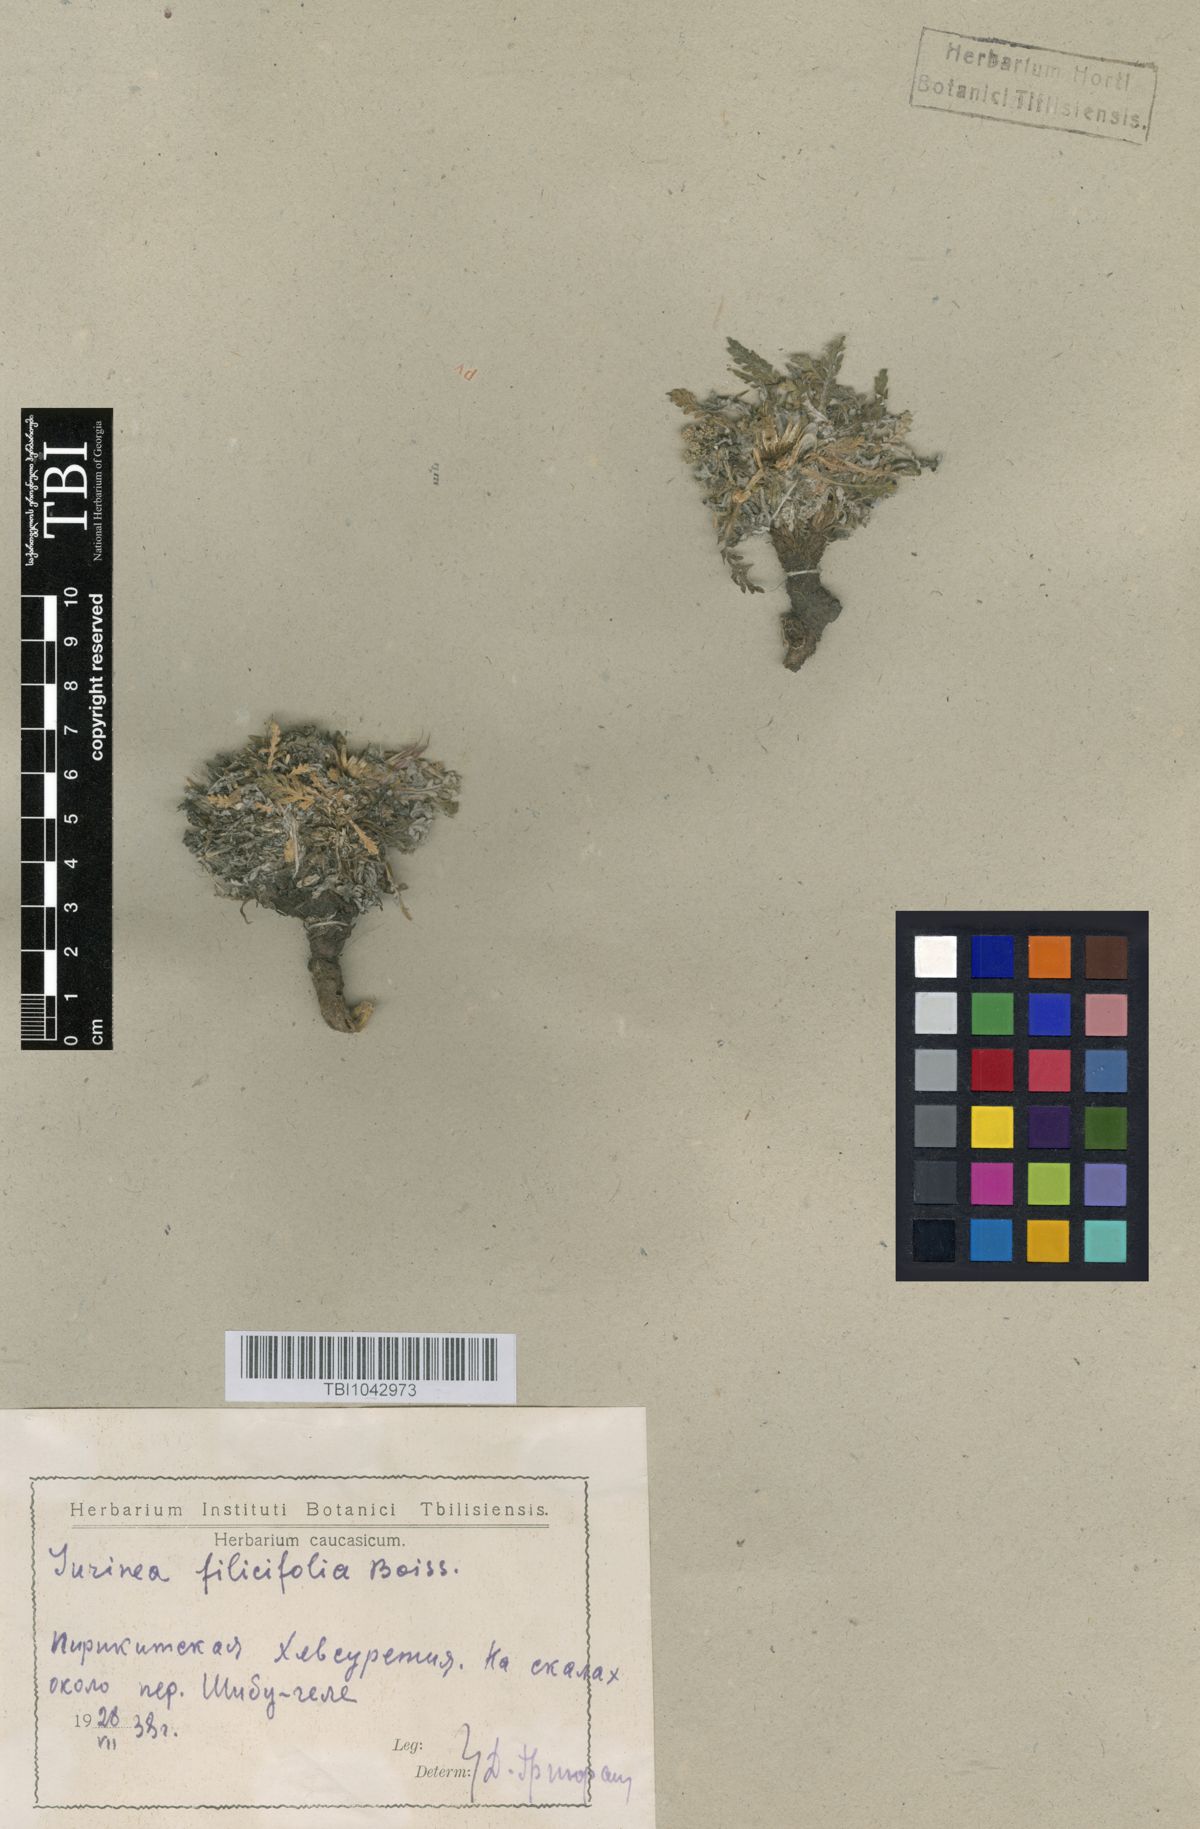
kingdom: Plantae
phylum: Tracheophyta
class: Magnoliopsida
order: Asterales
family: Asteraceae
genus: Jurinea
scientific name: Jurinea filicifolia
